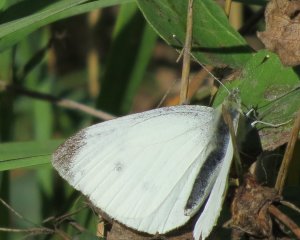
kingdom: Animalia
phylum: Arthropoda
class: Insecta
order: Lepidoptera
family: Pieridae
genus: Pieris
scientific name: Pieris rapae
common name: Cabbage White
